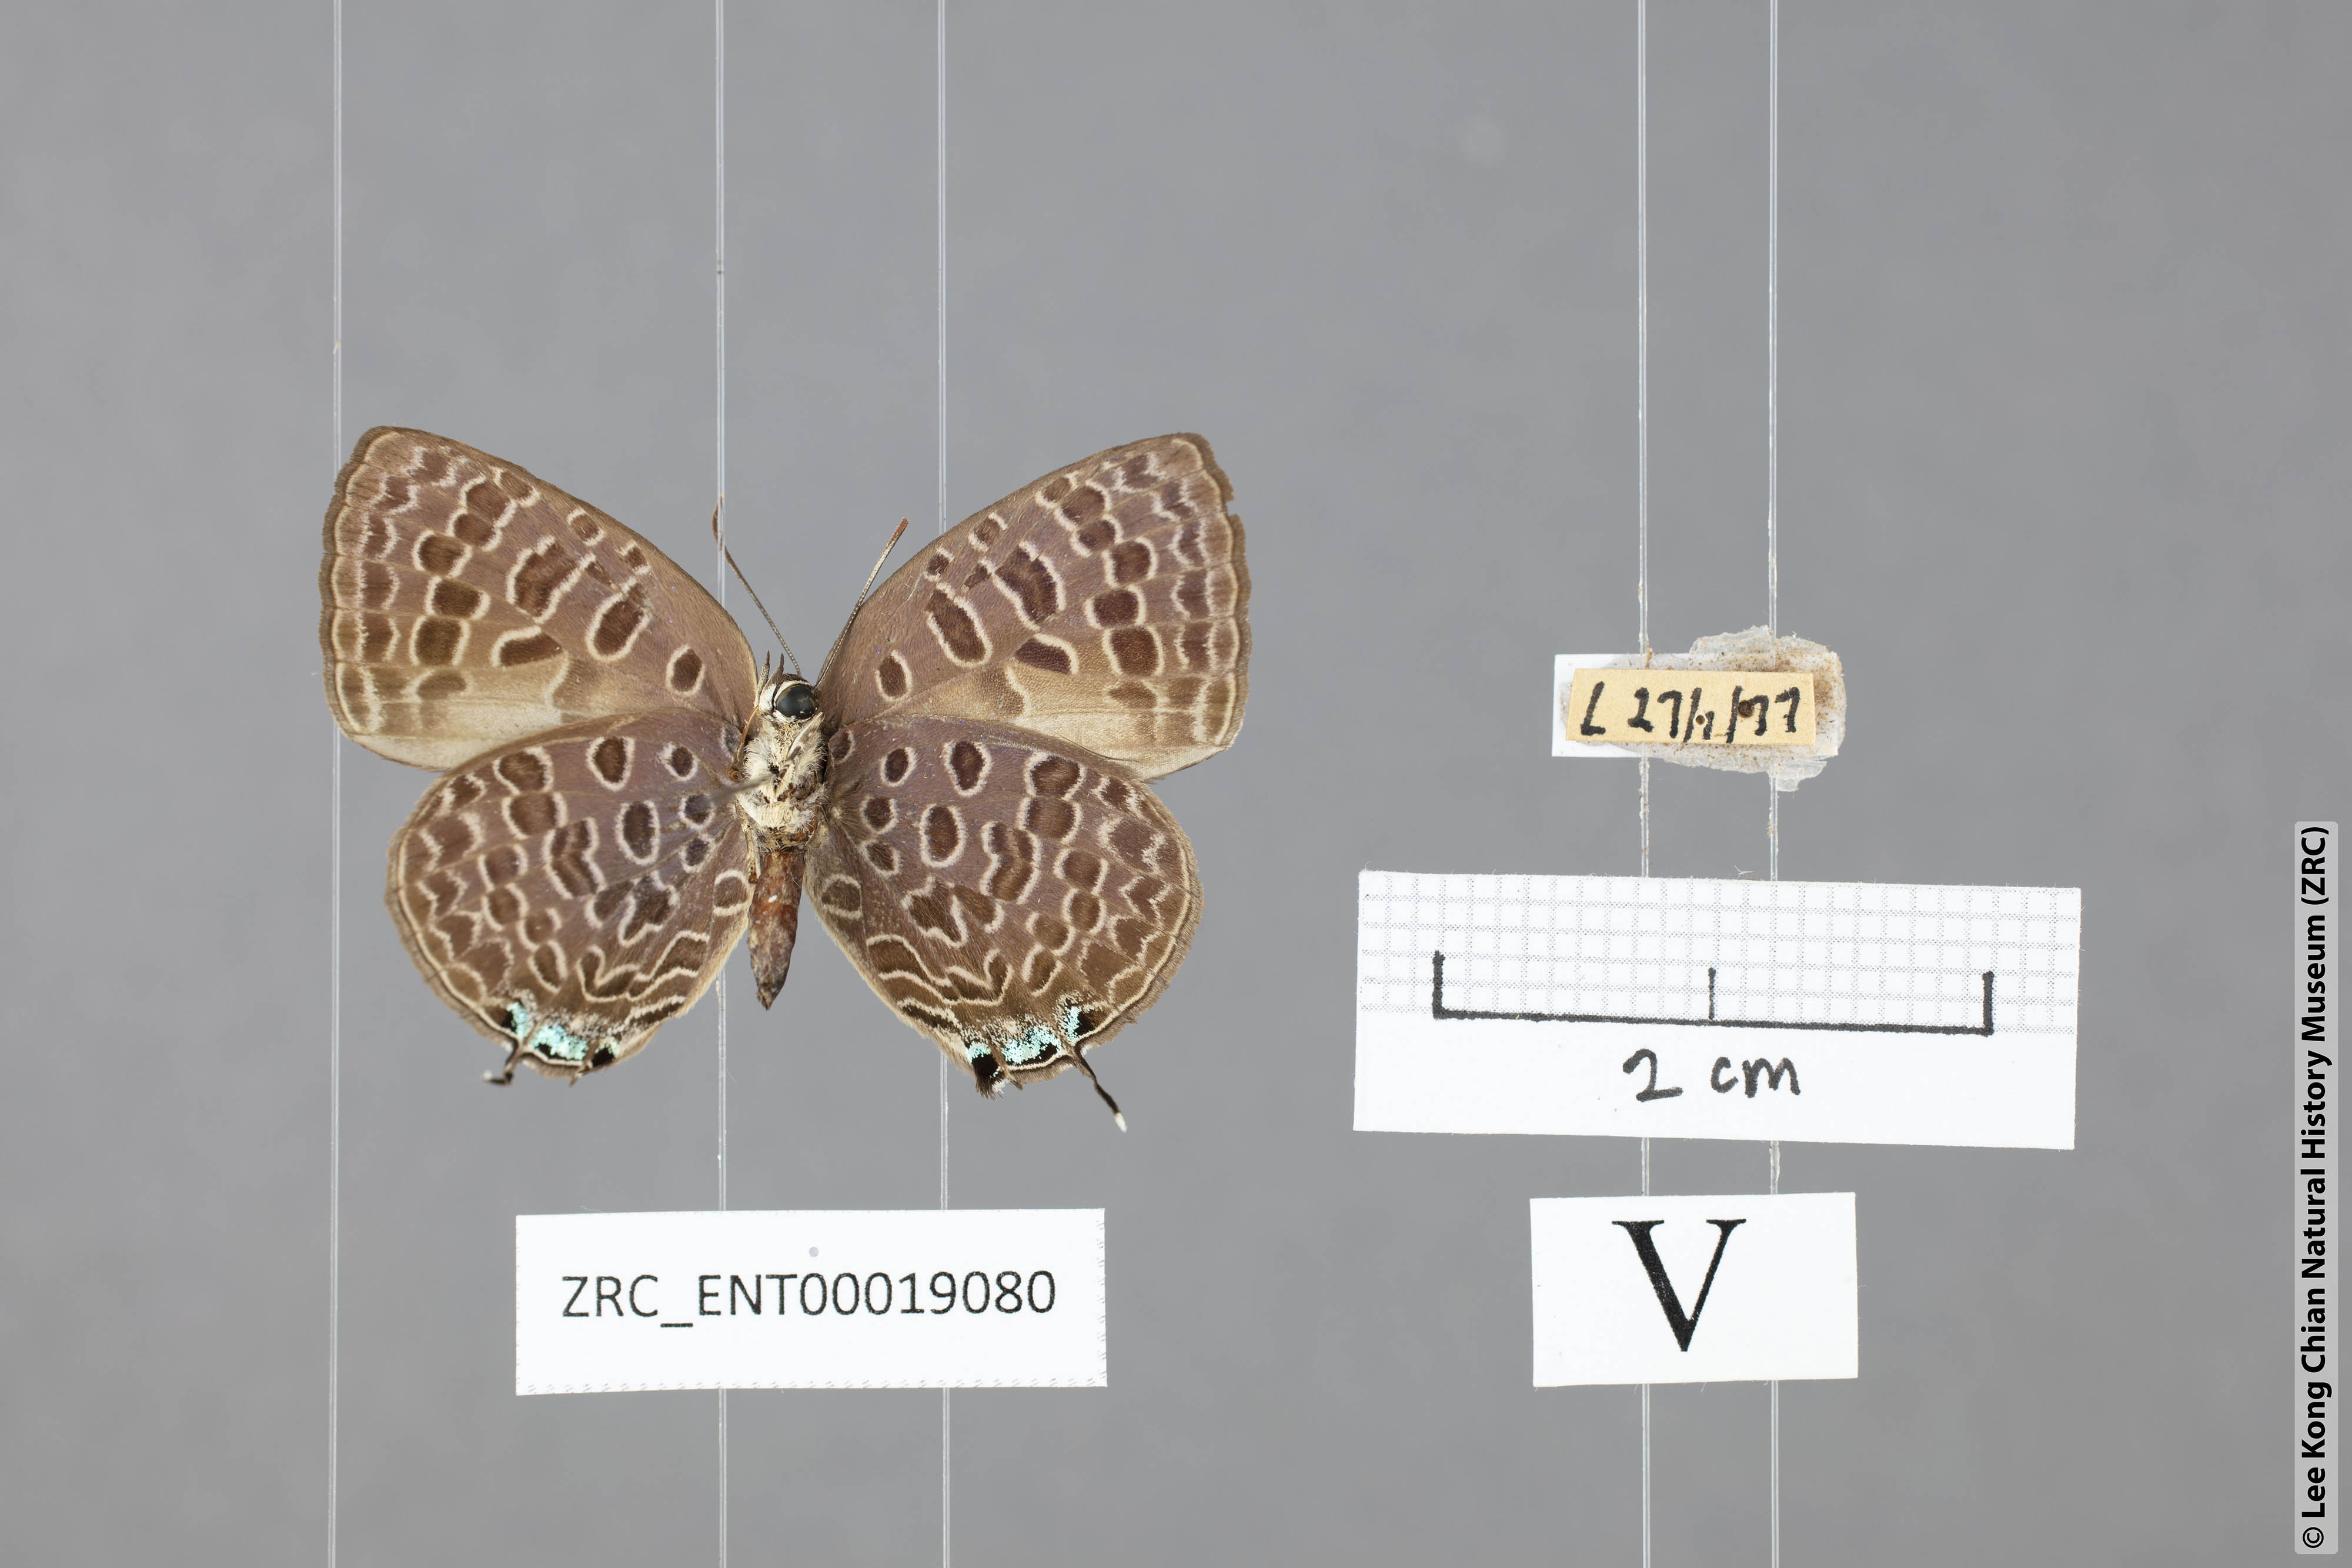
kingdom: Animalia
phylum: Arthropoda
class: Insecta
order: Lepidoptera
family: Lycaenidae
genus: Arhopala
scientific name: Arhopala alitaeus
